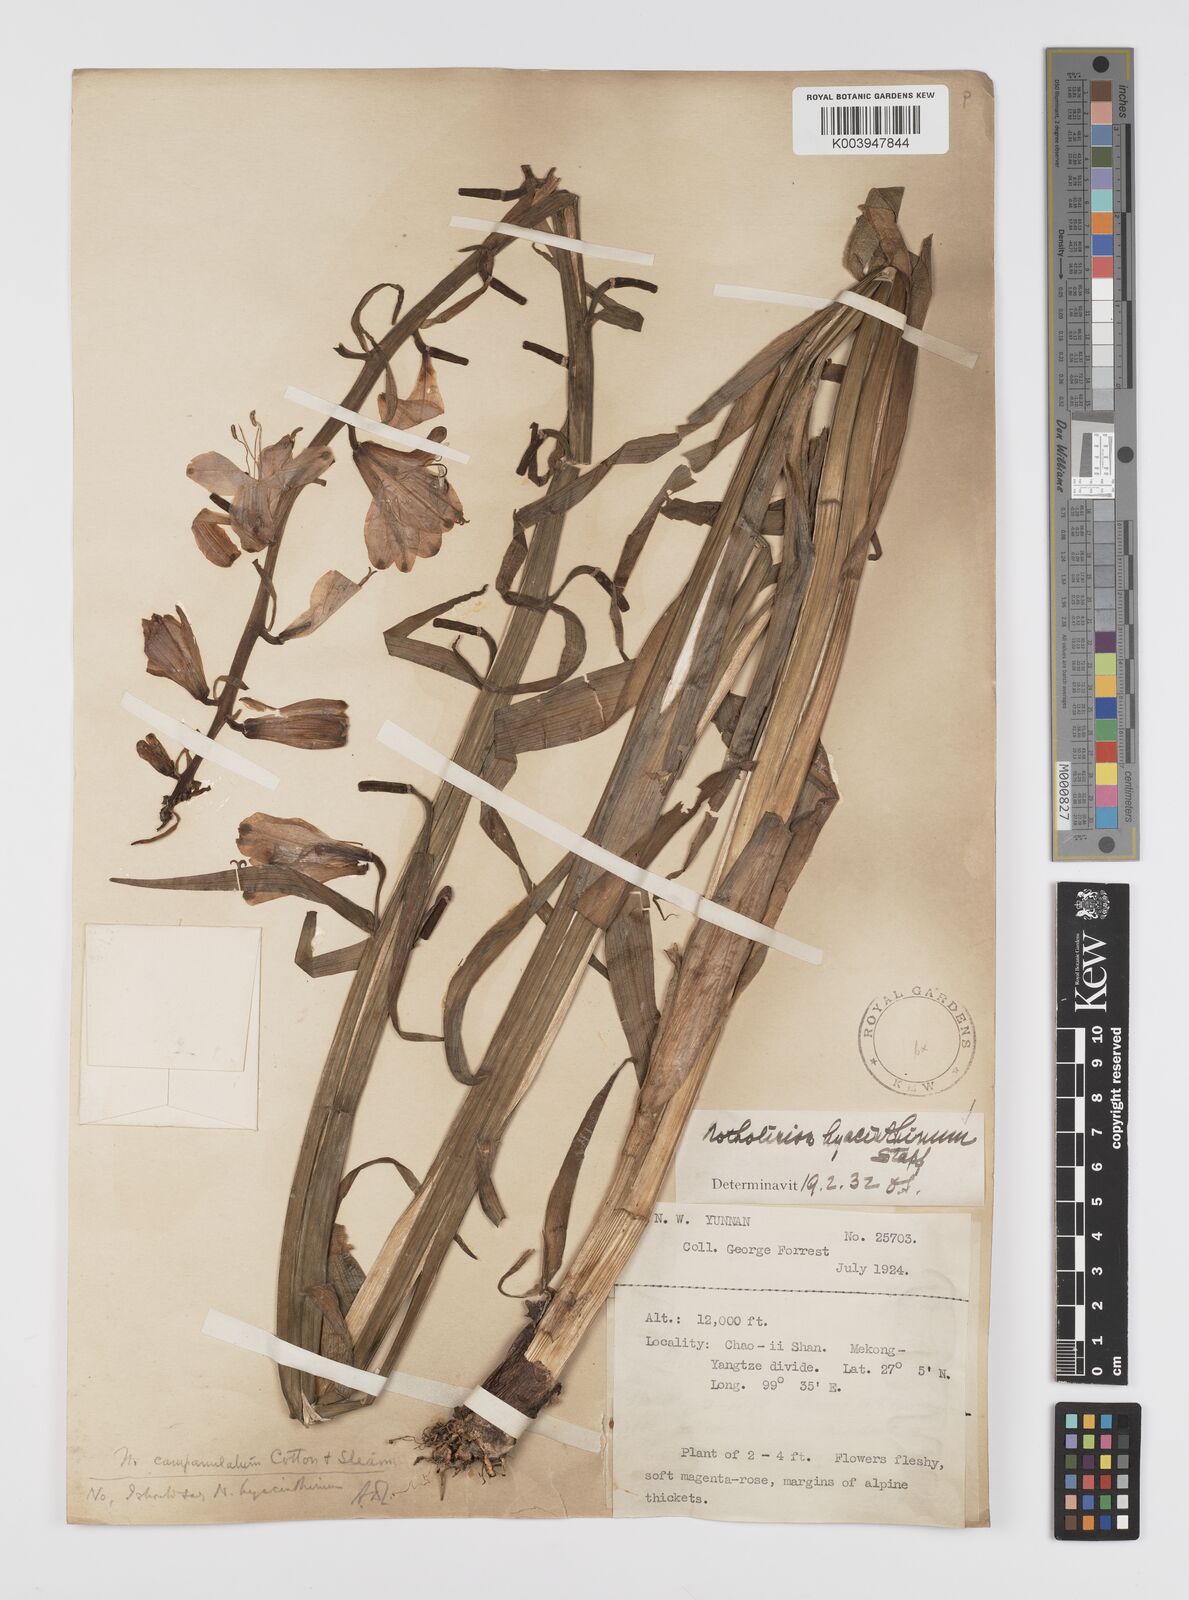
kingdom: Plantae
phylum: Tracheophyta
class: Liliopsida
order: Liliales
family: Liliaceae
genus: Notholirion
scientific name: Notholirion bulbuliferum
